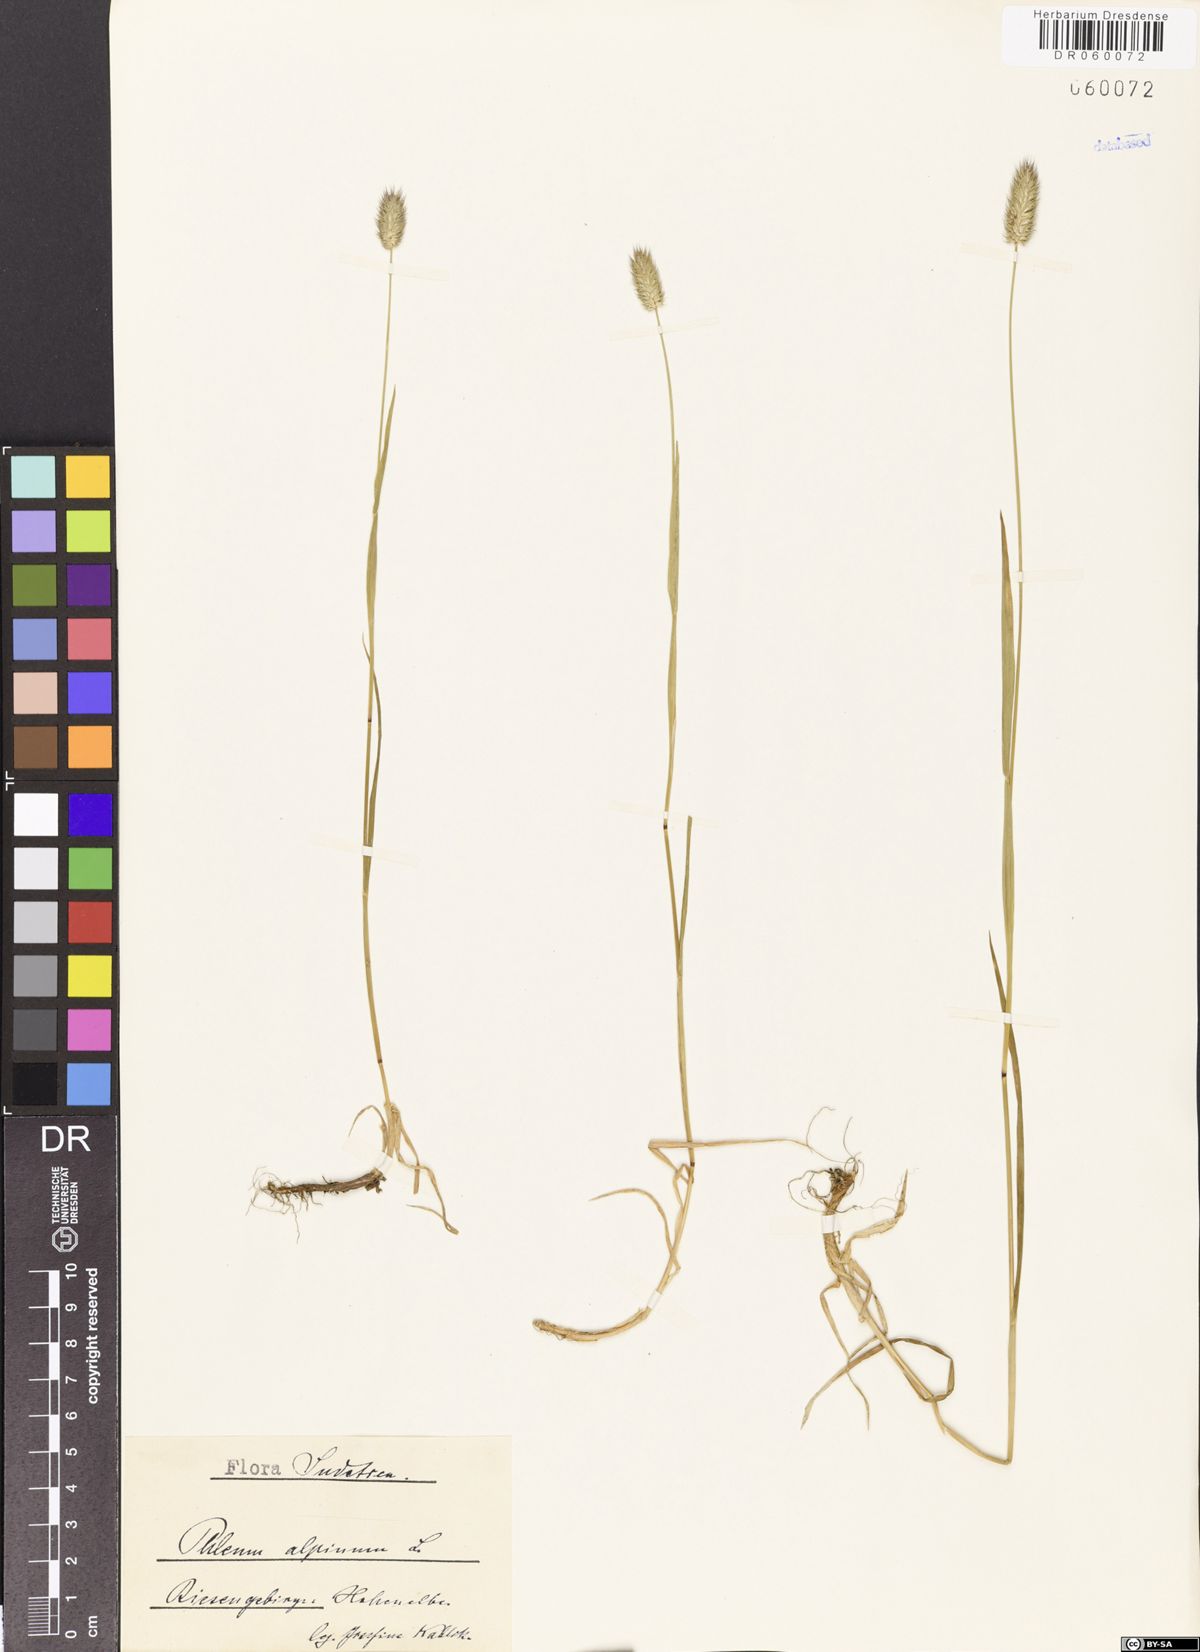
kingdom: Plantae
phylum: Tracheophyta
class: Liliopsida
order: Poales
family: Poaceae
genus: Phleum
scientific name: Phleum alpinum
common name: Alpine cat's-tail
